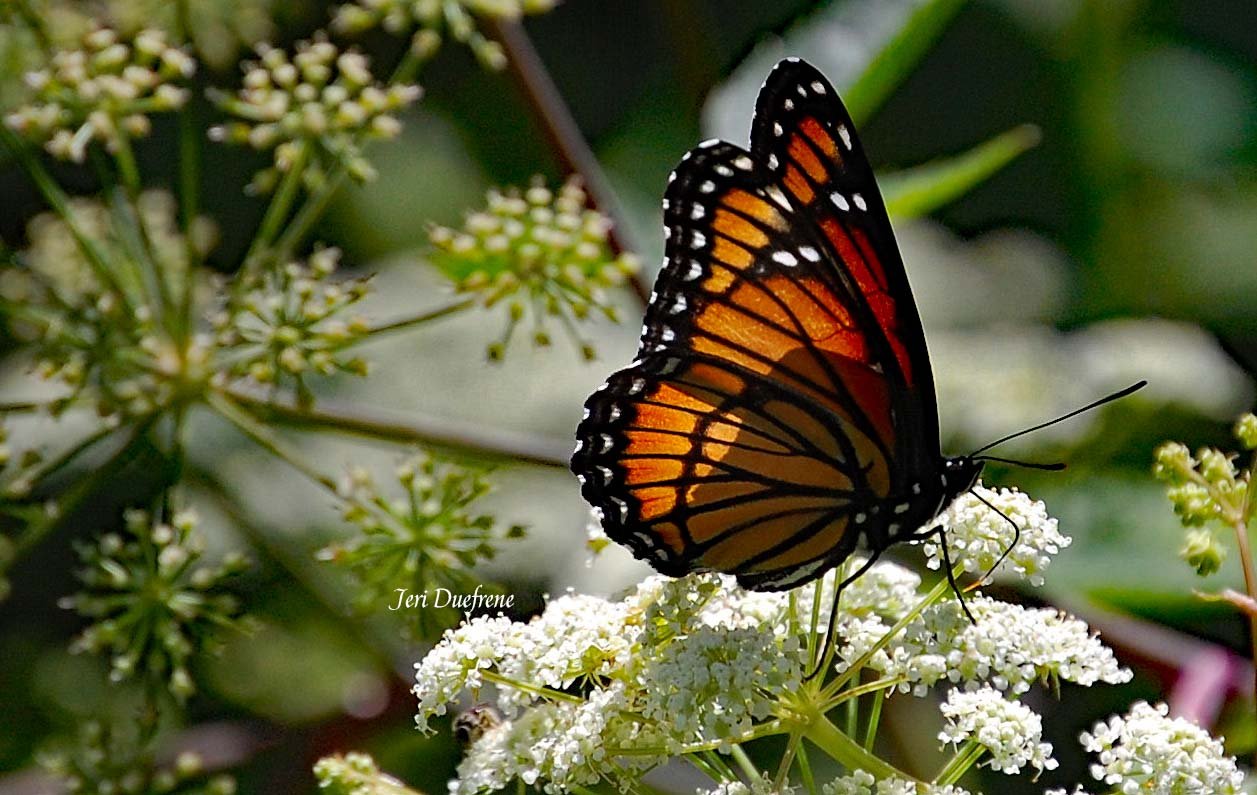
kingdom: Animalia
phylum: Arthropoda
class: Insecta
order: Lepidoptera
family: Nymphalidae
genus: Limenitis
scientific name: Limenitis archippus
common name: Viceroy
